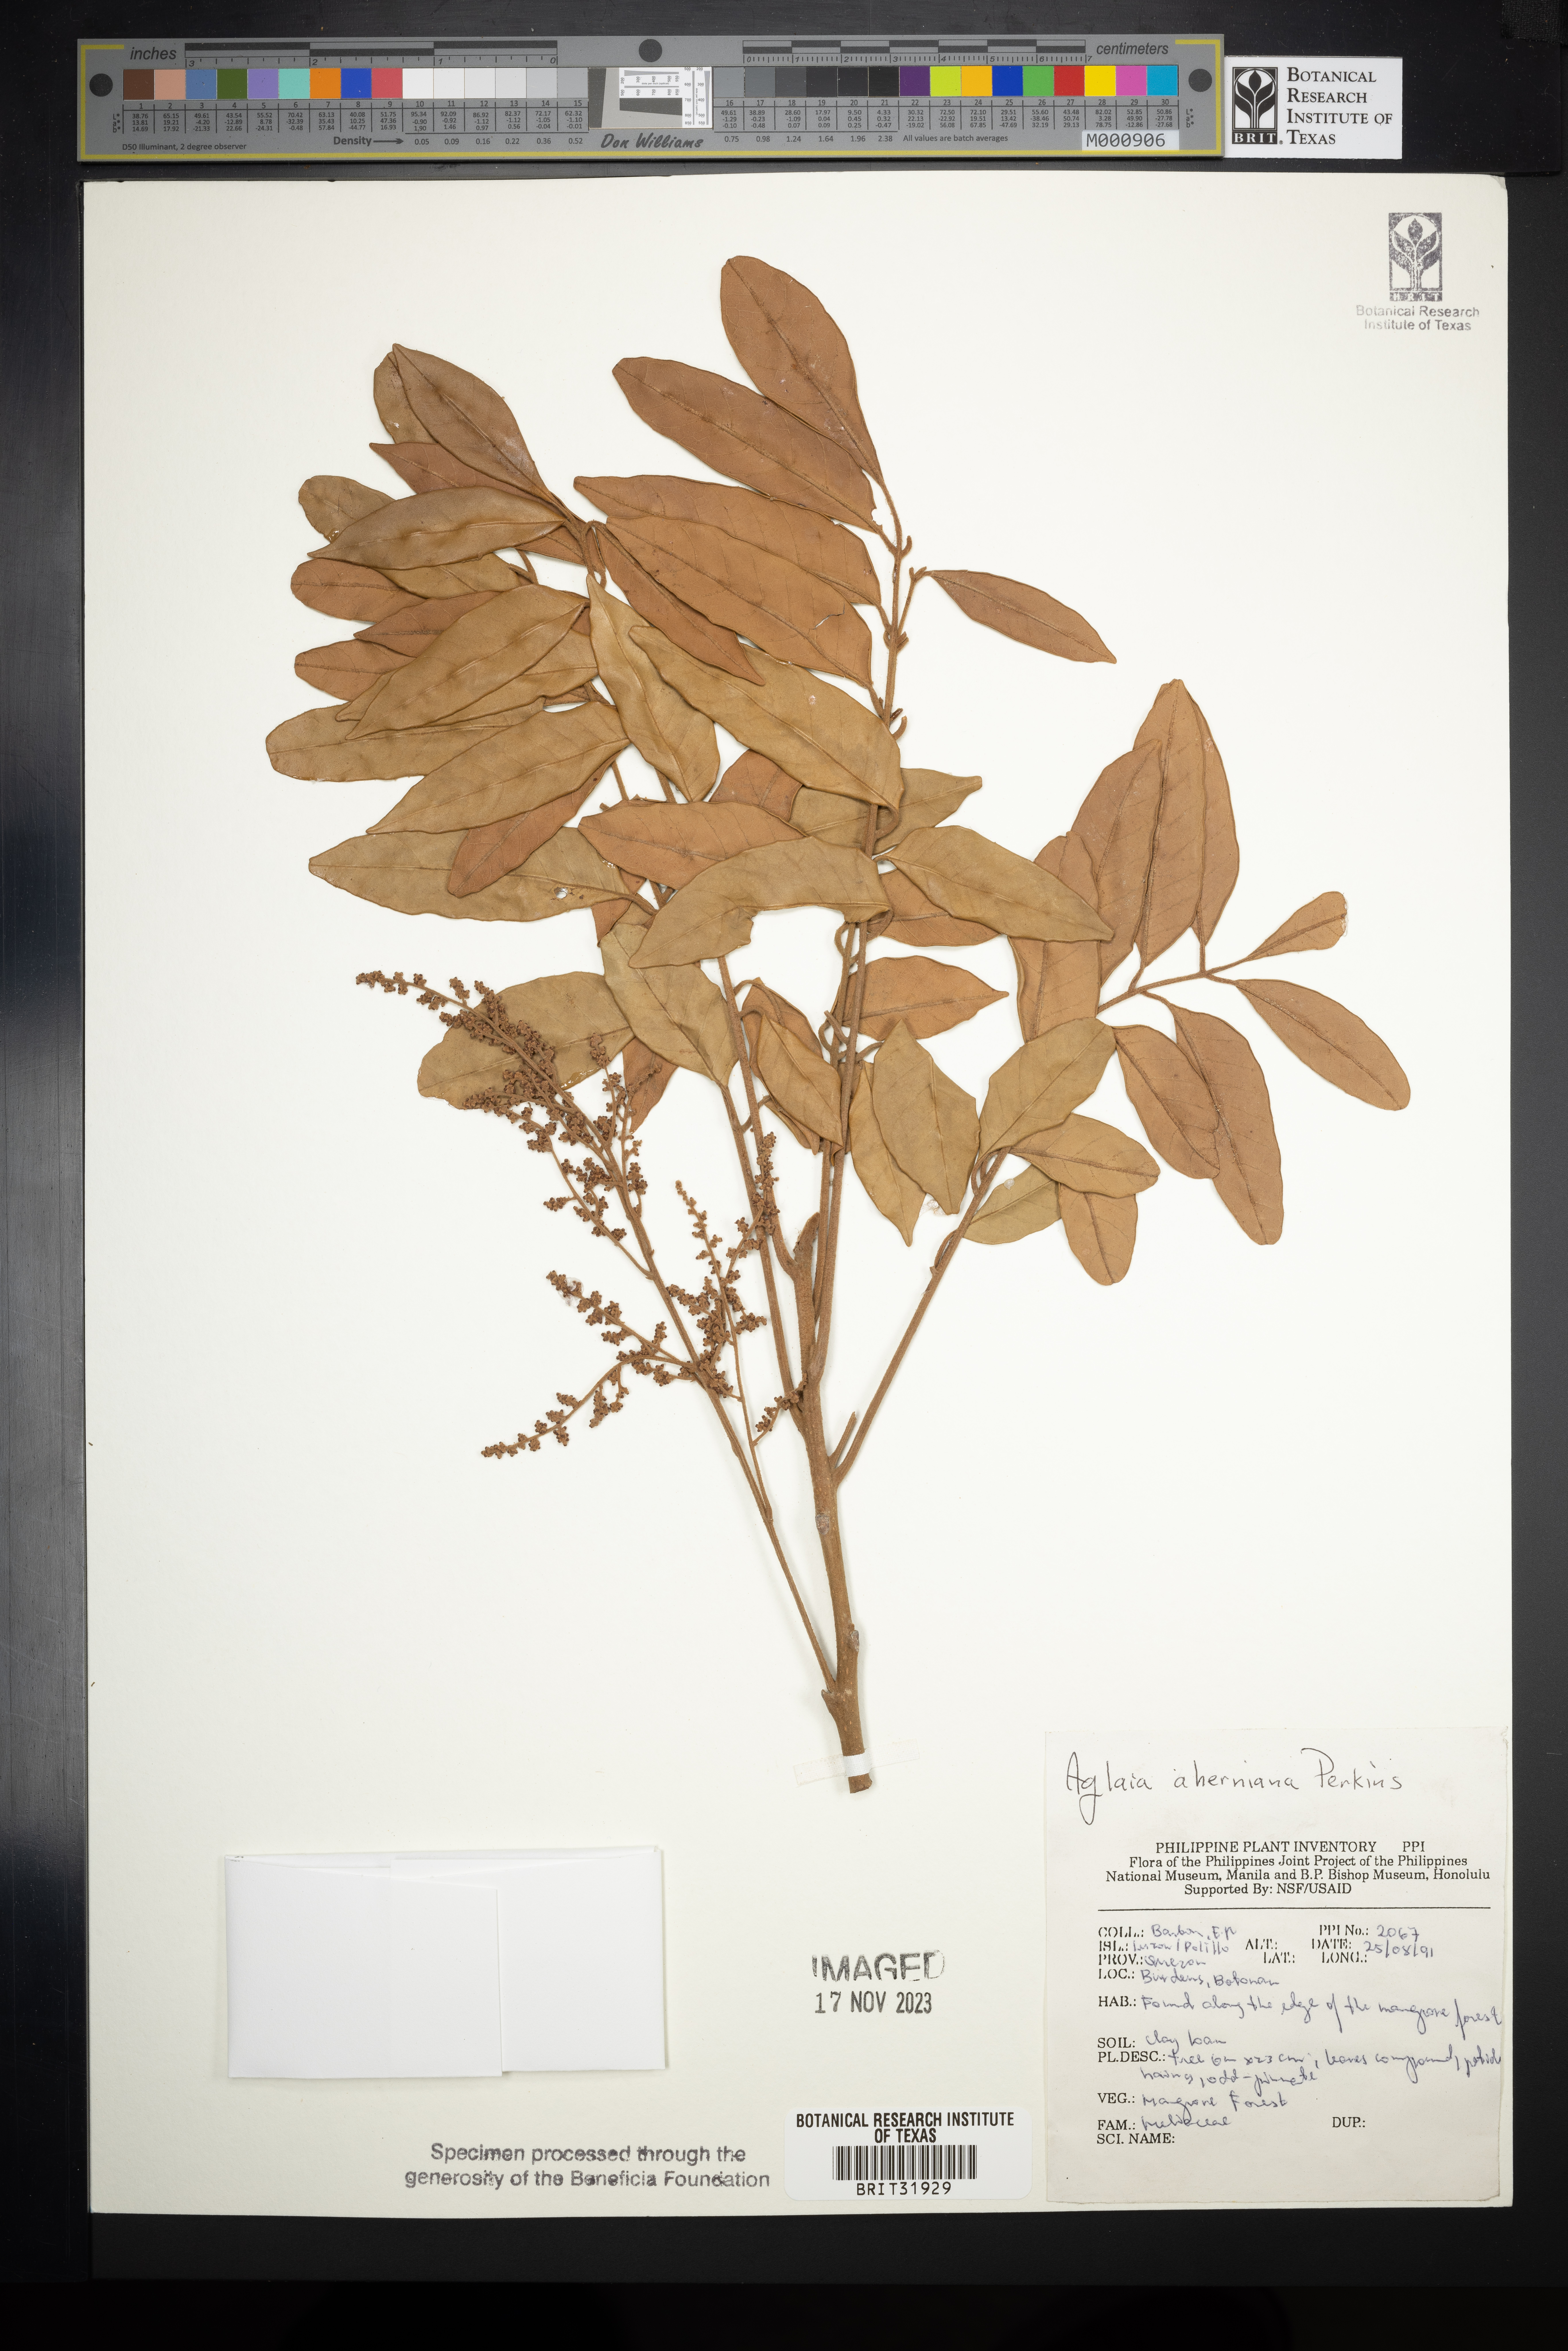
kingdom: Plantae
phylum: Tracheophyta
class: Magnoliopsida
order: Sapindales
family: Meliaceae
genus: Aglaia
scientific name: Aglaia aherniana
